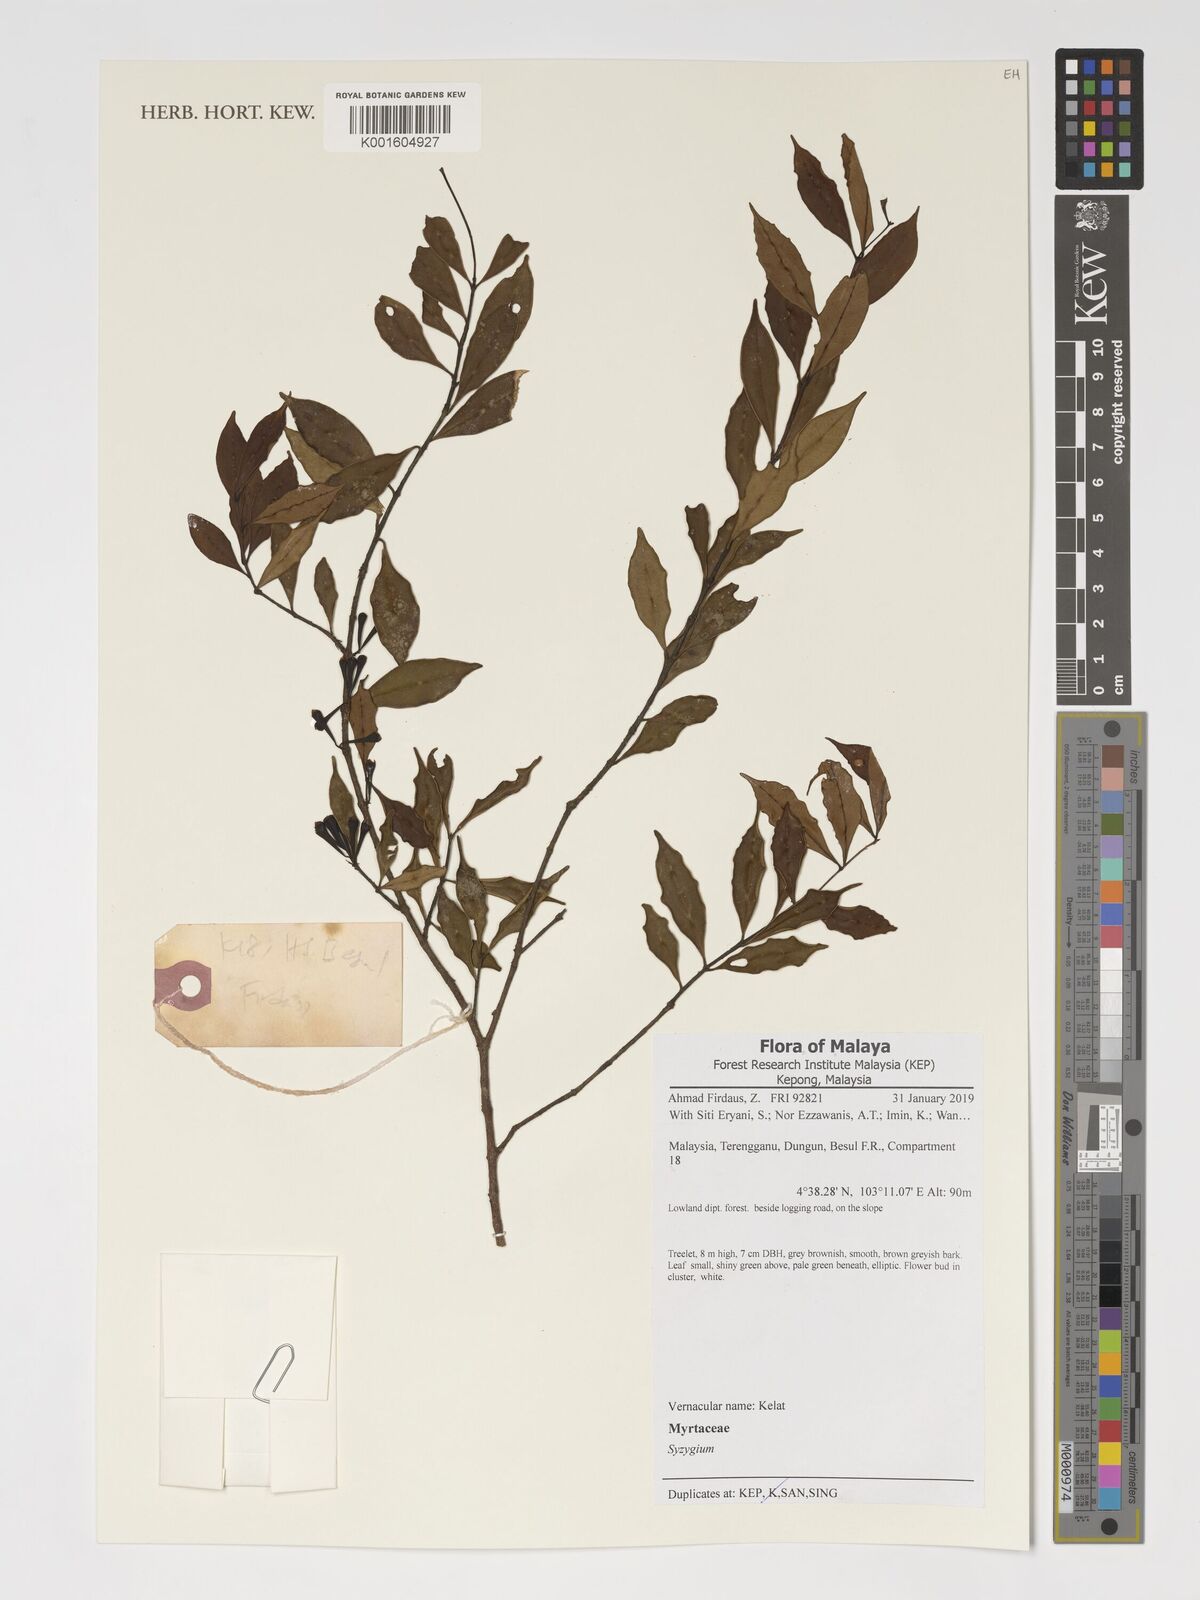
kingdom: Plantae
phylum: Tracheophyta
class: Magnoliopsida
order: Myrtales
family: Myrtaceae
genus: Syzygium
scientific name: Syzygium
